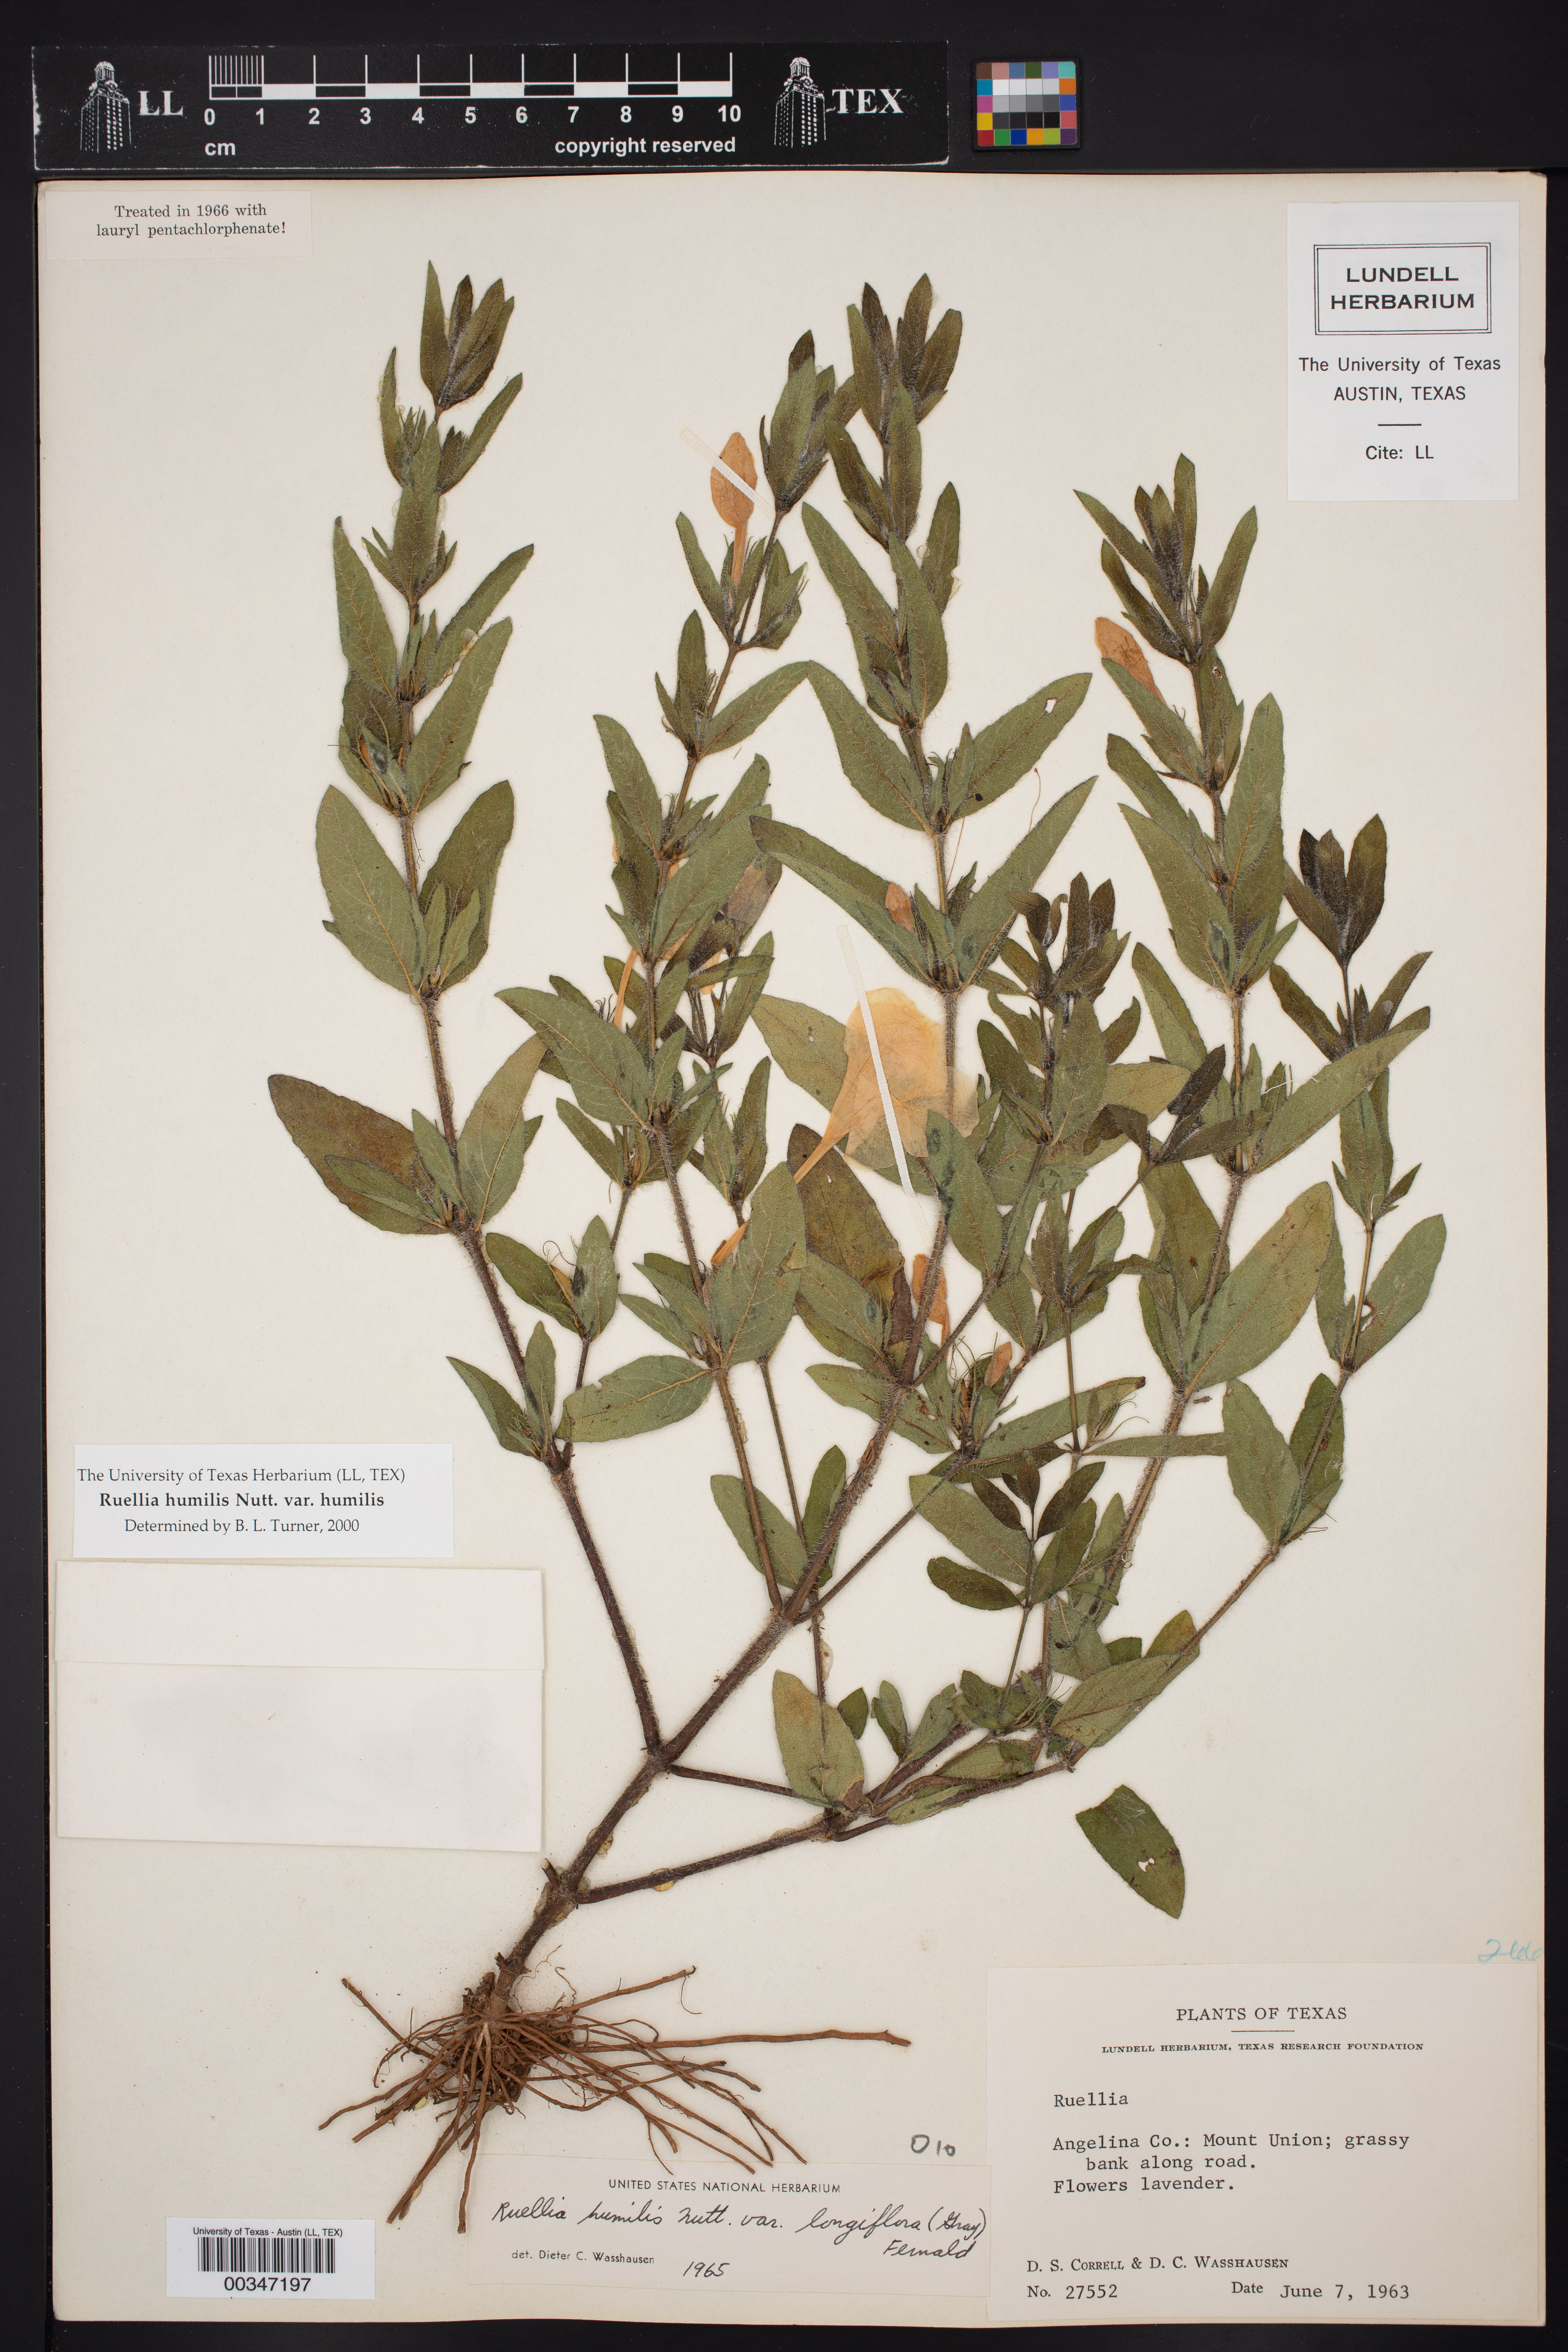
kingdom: Plantae
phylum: Tracheophyta
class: Magnoliopsida
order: Lamiales
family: Acanthaceae
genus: Ruellia
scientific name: Ruellia humilis
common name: Fringe-leaf ruellia
